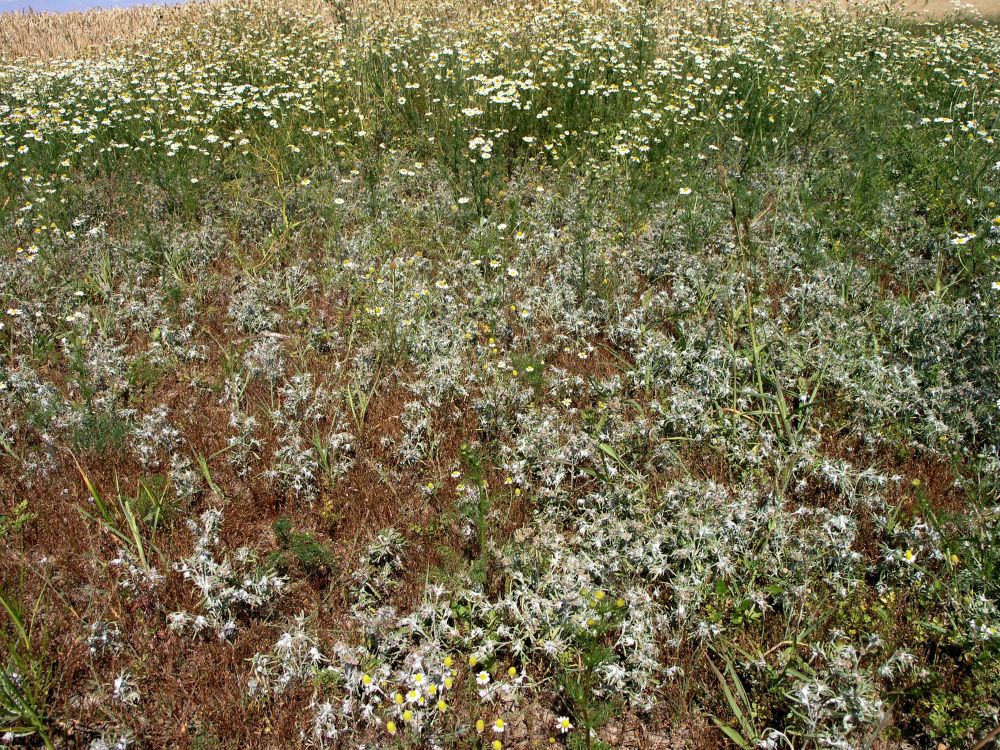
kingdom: Plantae
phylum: Tracheophyta
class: Magnoliopsida
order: Asterales
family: Asteraceae
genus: Gnaphalium
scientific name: Gnaphalium uliginosum
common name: Marsh cudweed
